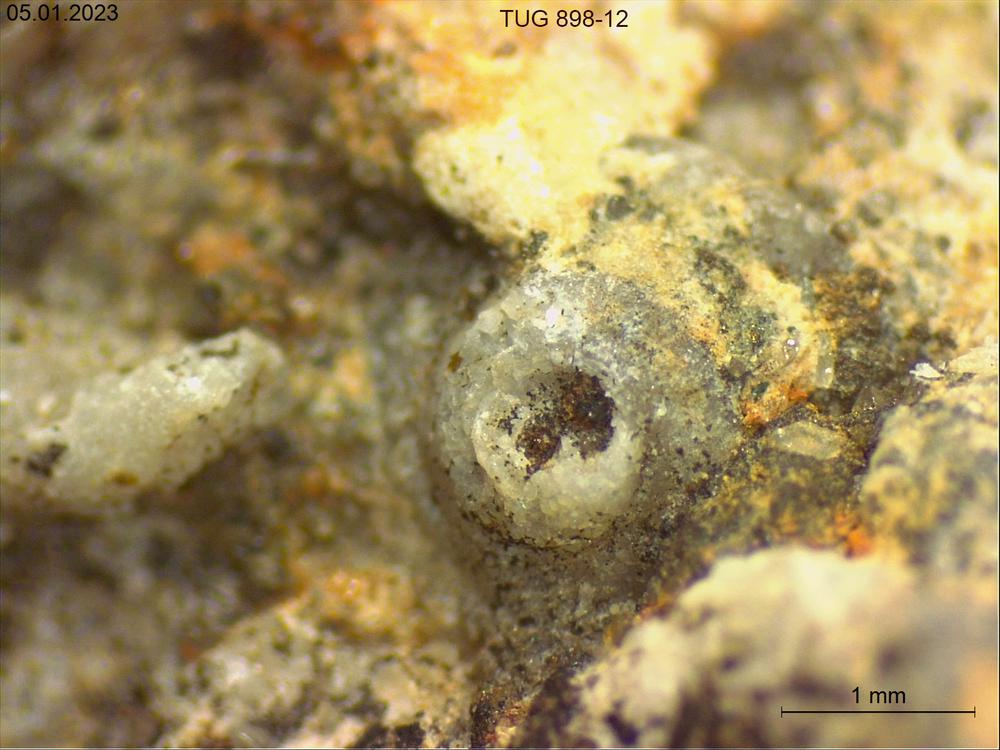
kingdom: Animalia
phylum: Mollusca
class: Gastropoda
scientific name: Gastropoda
